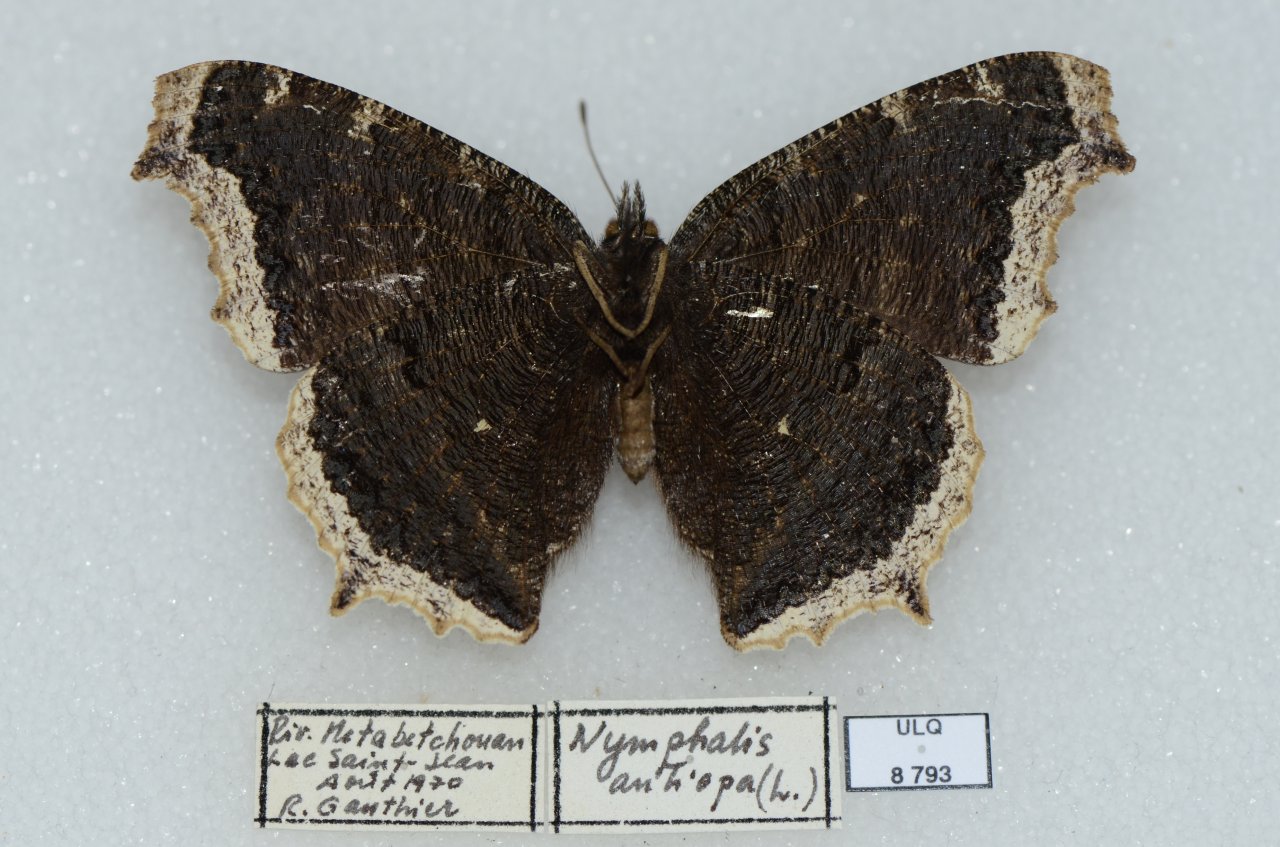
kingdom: Animalia
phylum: Arthropoda
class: Insecta
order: Lepidoptera
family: Nymphalidae
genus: Nymphalis
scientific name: Nymphalis antiopa
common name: Mourning Cloak
